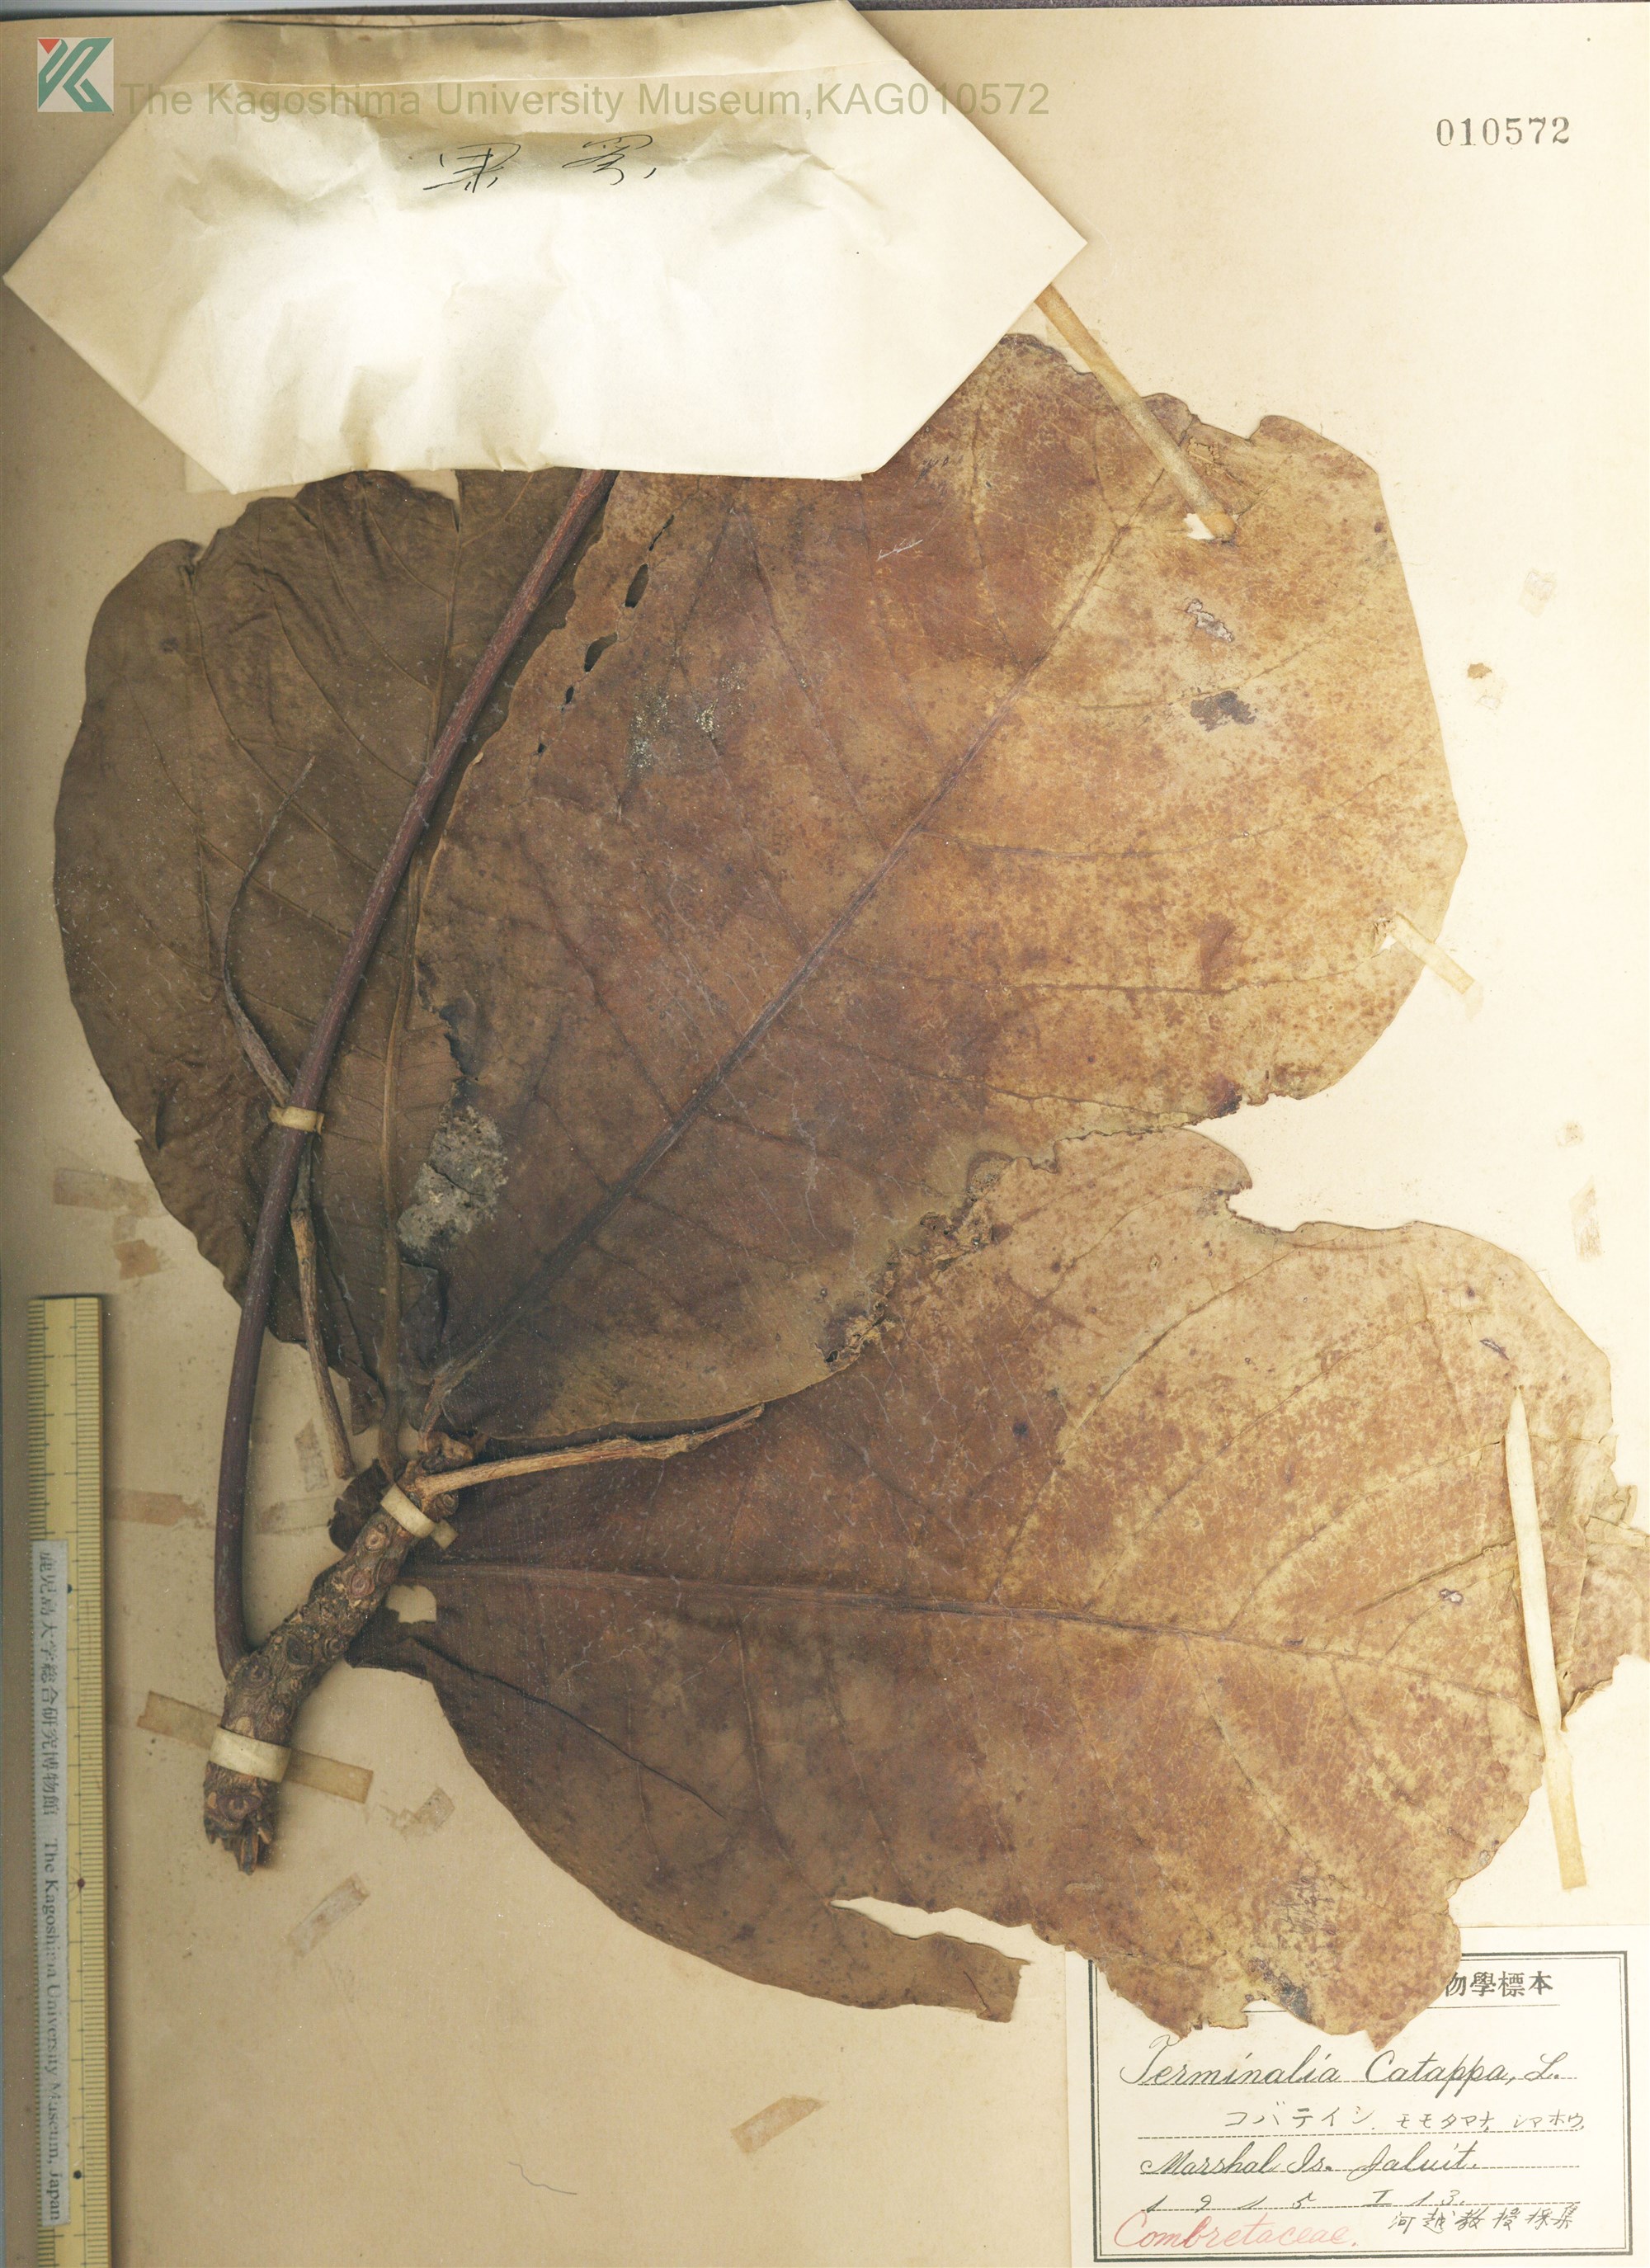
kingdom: Plantae
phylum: Tracheophyta
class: Magnoliopsida
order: Myrtales
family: Combretaceae
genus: Terminalia
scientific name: Terminalia catappa
